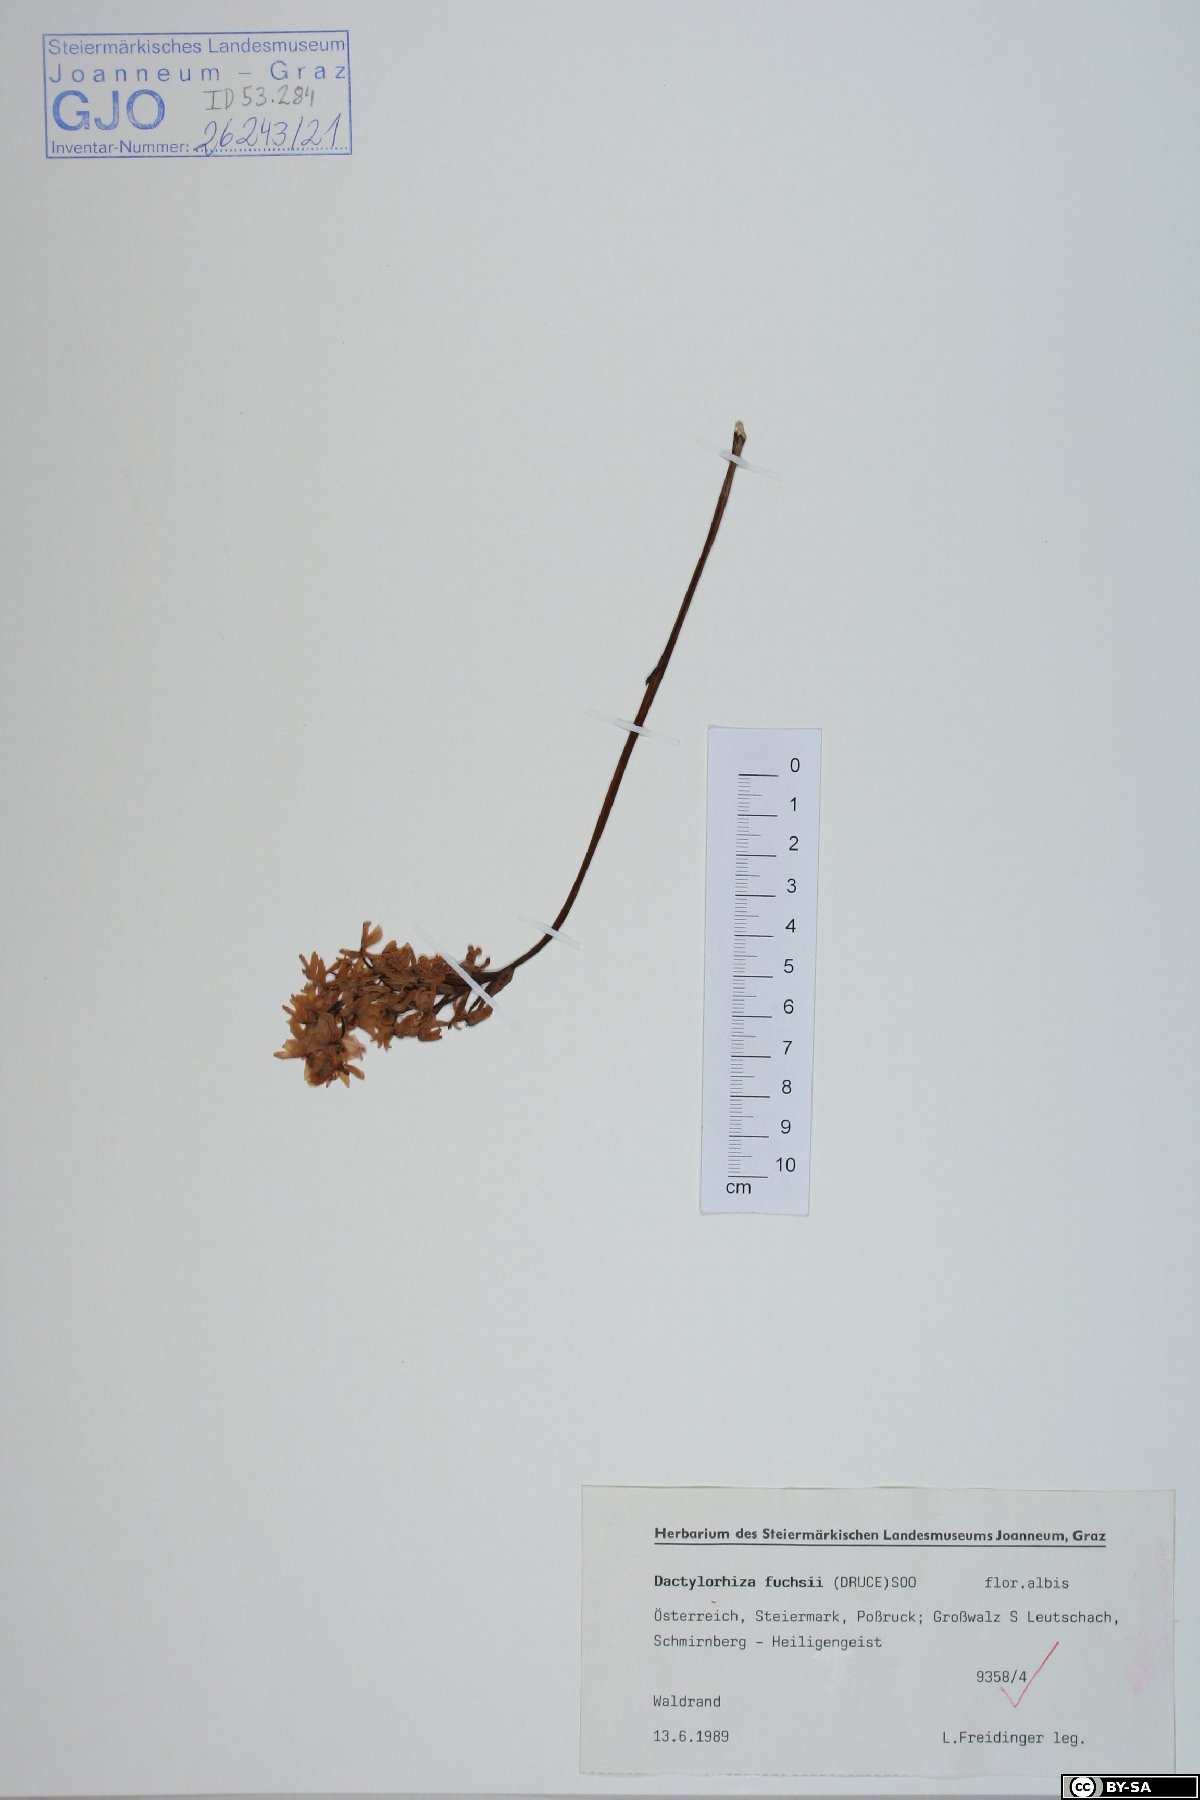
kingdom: Plantae
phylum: Tracheophyta
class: Liliopsida
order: Asparagales
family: Orchidaceae
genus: Dactylorhiza
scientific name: Dactylorhiza maculata
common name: Heath spotted-orchid
